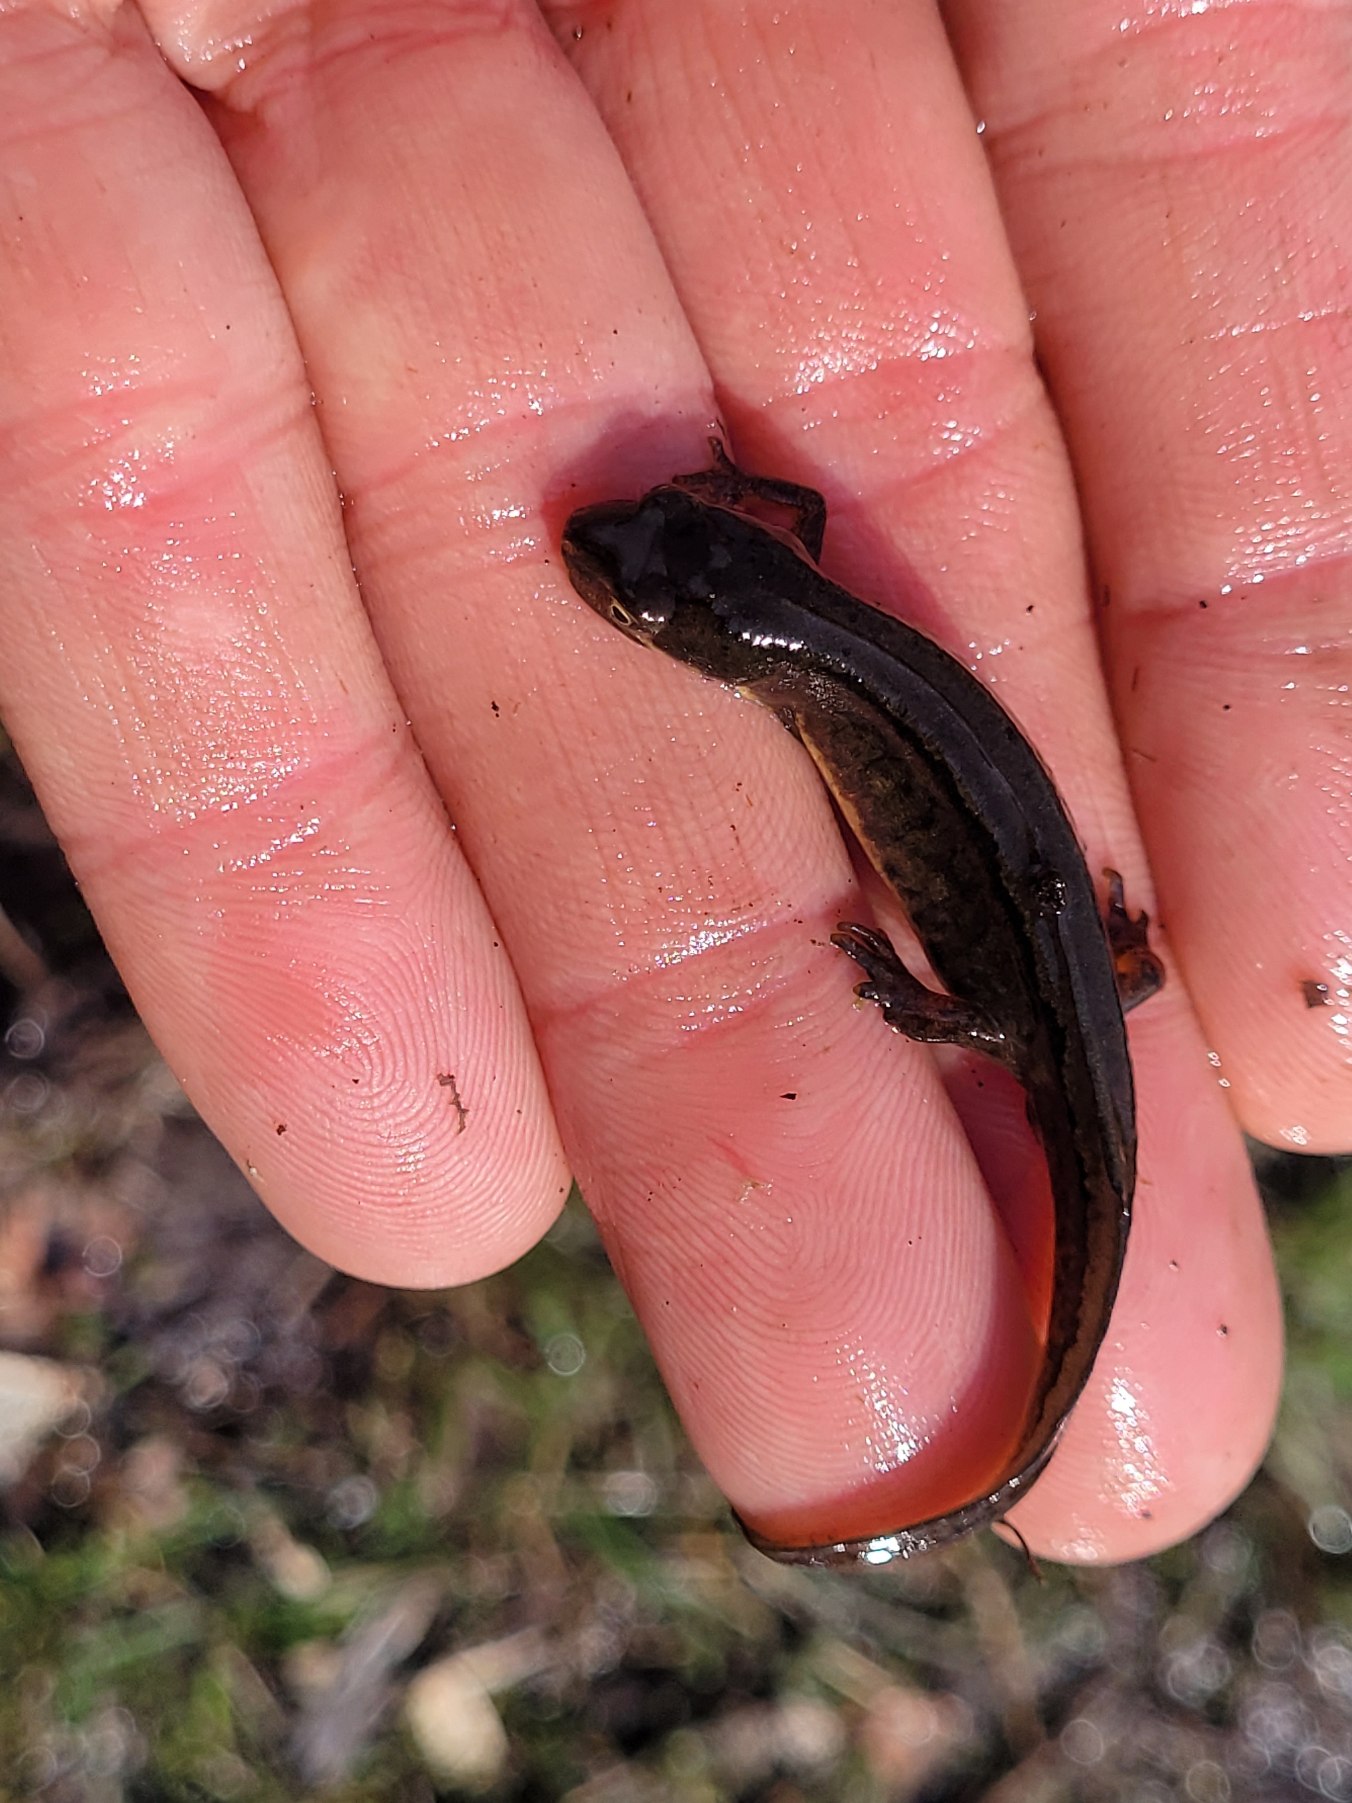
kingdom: Animalia
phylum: Chordata
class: Amphibia
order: Caudata
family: Salamandridae
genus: Lissotriton
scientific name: Lissotriton vulgaris
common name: Lille vandsalamander
